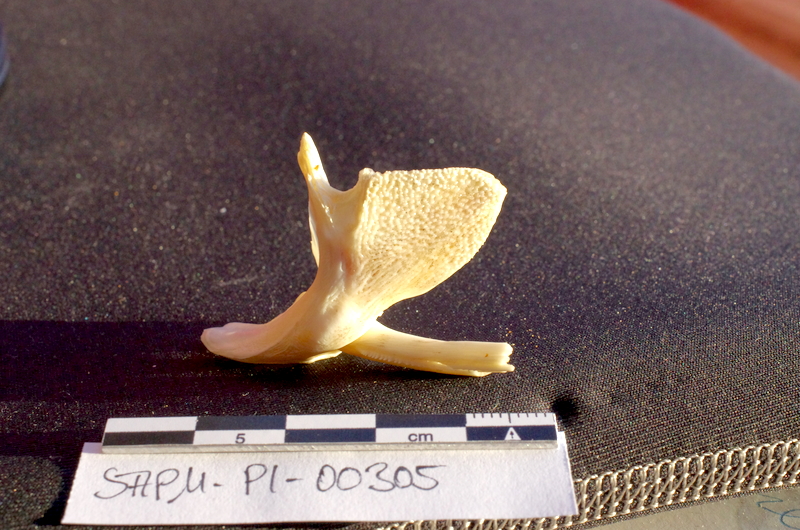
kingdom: Animalia
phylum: Chordata
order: Siluriformes
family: Mochokidae
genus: Synodontis
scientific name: Synodontis sorex
